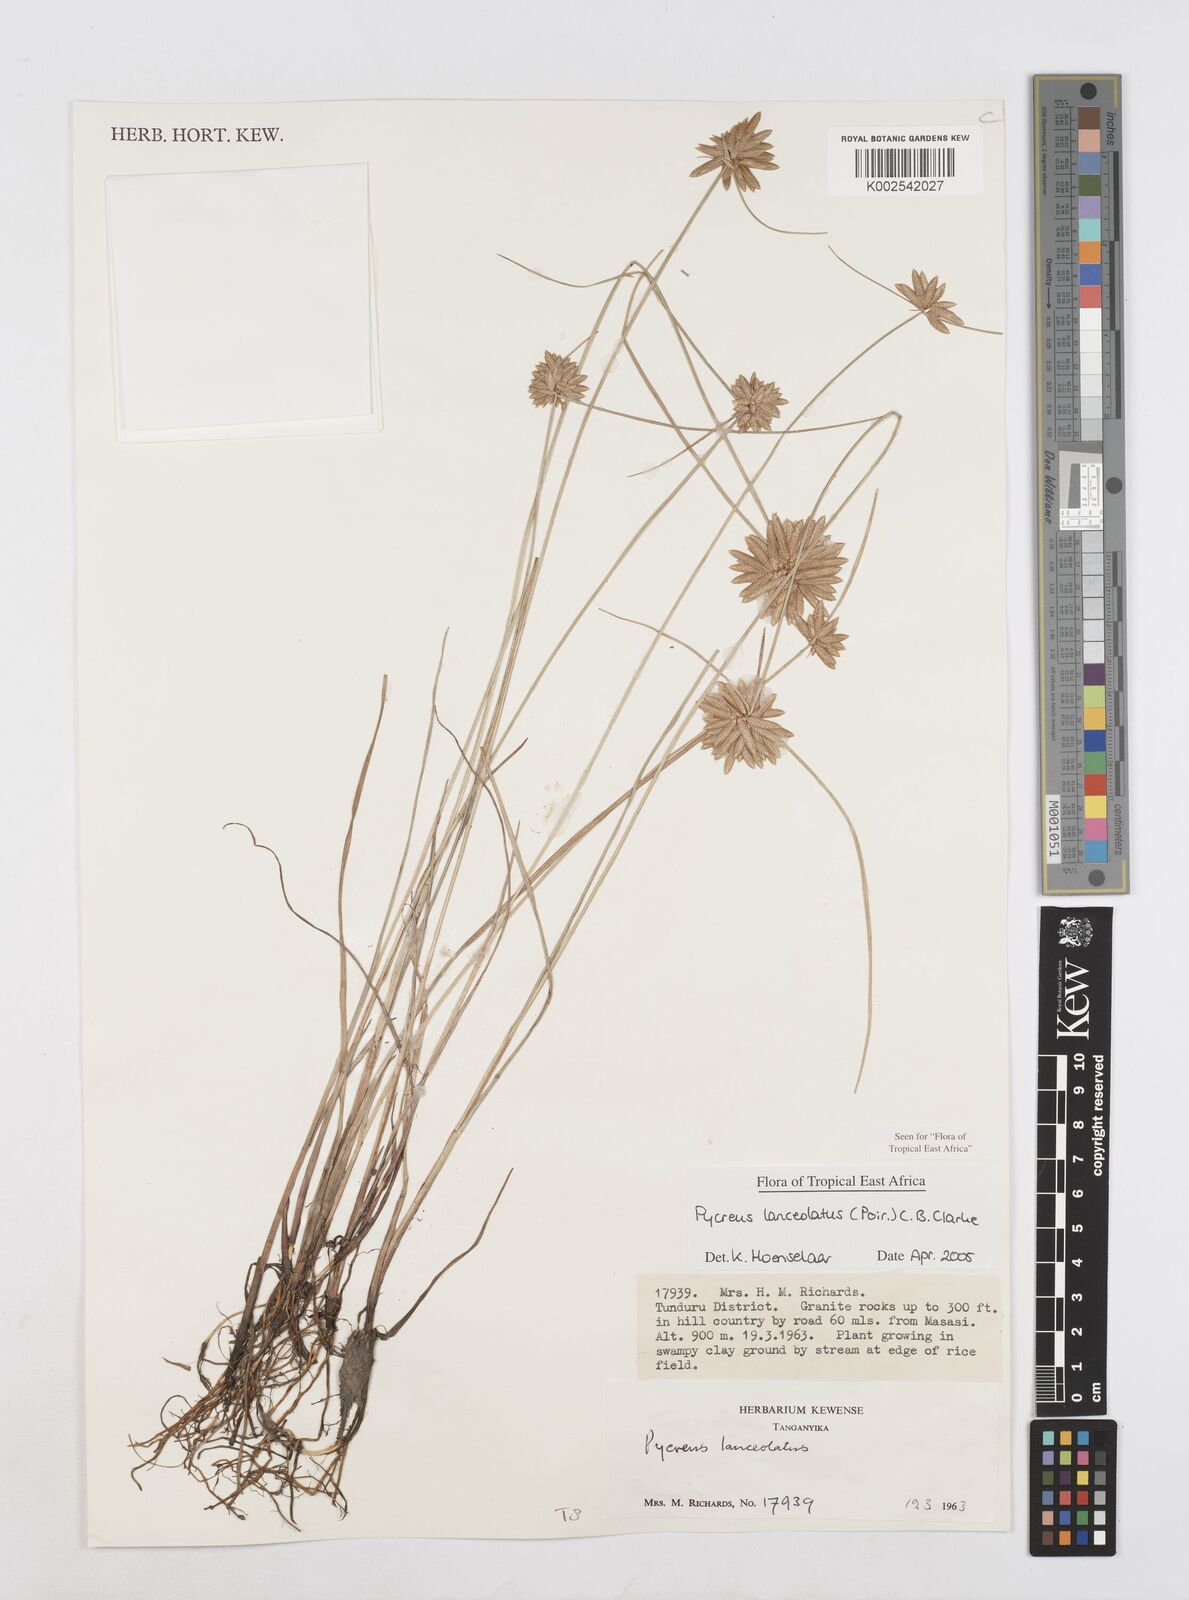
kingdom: Plantae
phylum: Tracheophyta
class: Liliopsida
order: Poales
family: Cyperaceae
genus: Cyperus
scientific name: Cyperus lanceolatus
